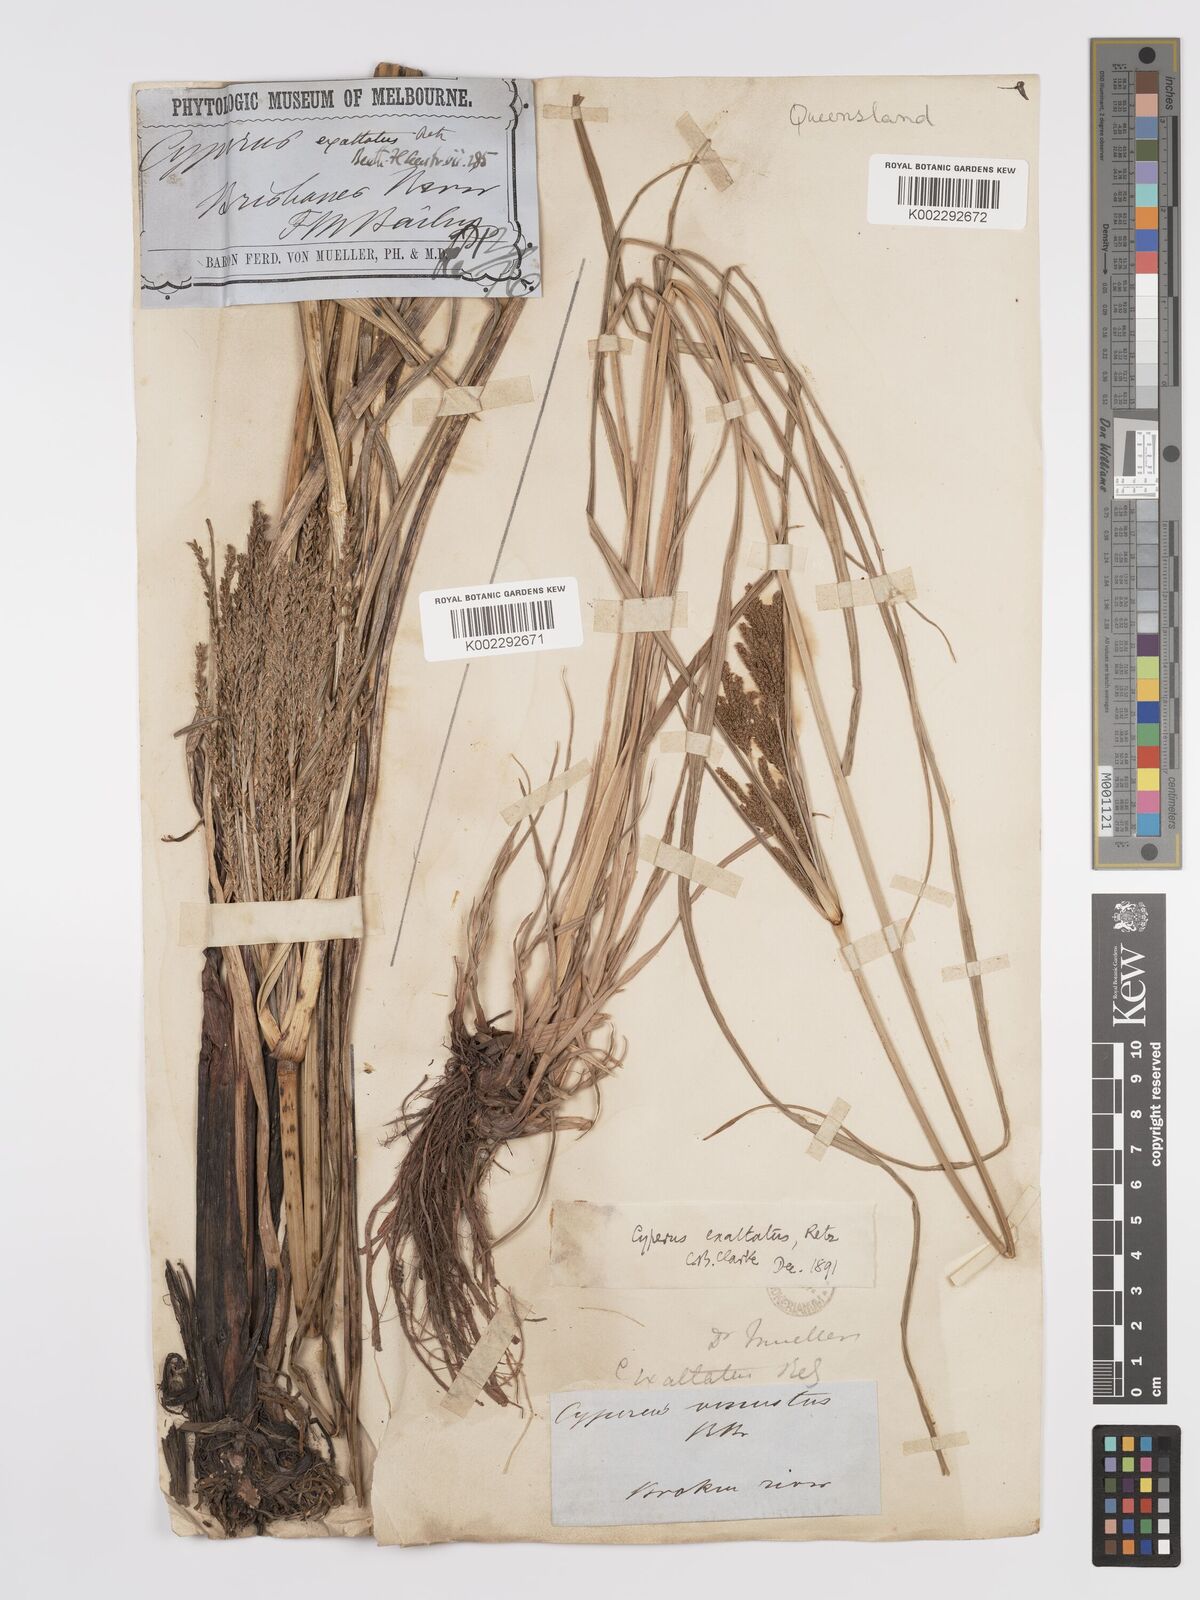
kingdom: Plantae
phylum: Tracheophyta
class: Liliopsida
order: Poales
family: Cyperaceae
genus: Cyperus
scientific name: Cyperus exaltatus
